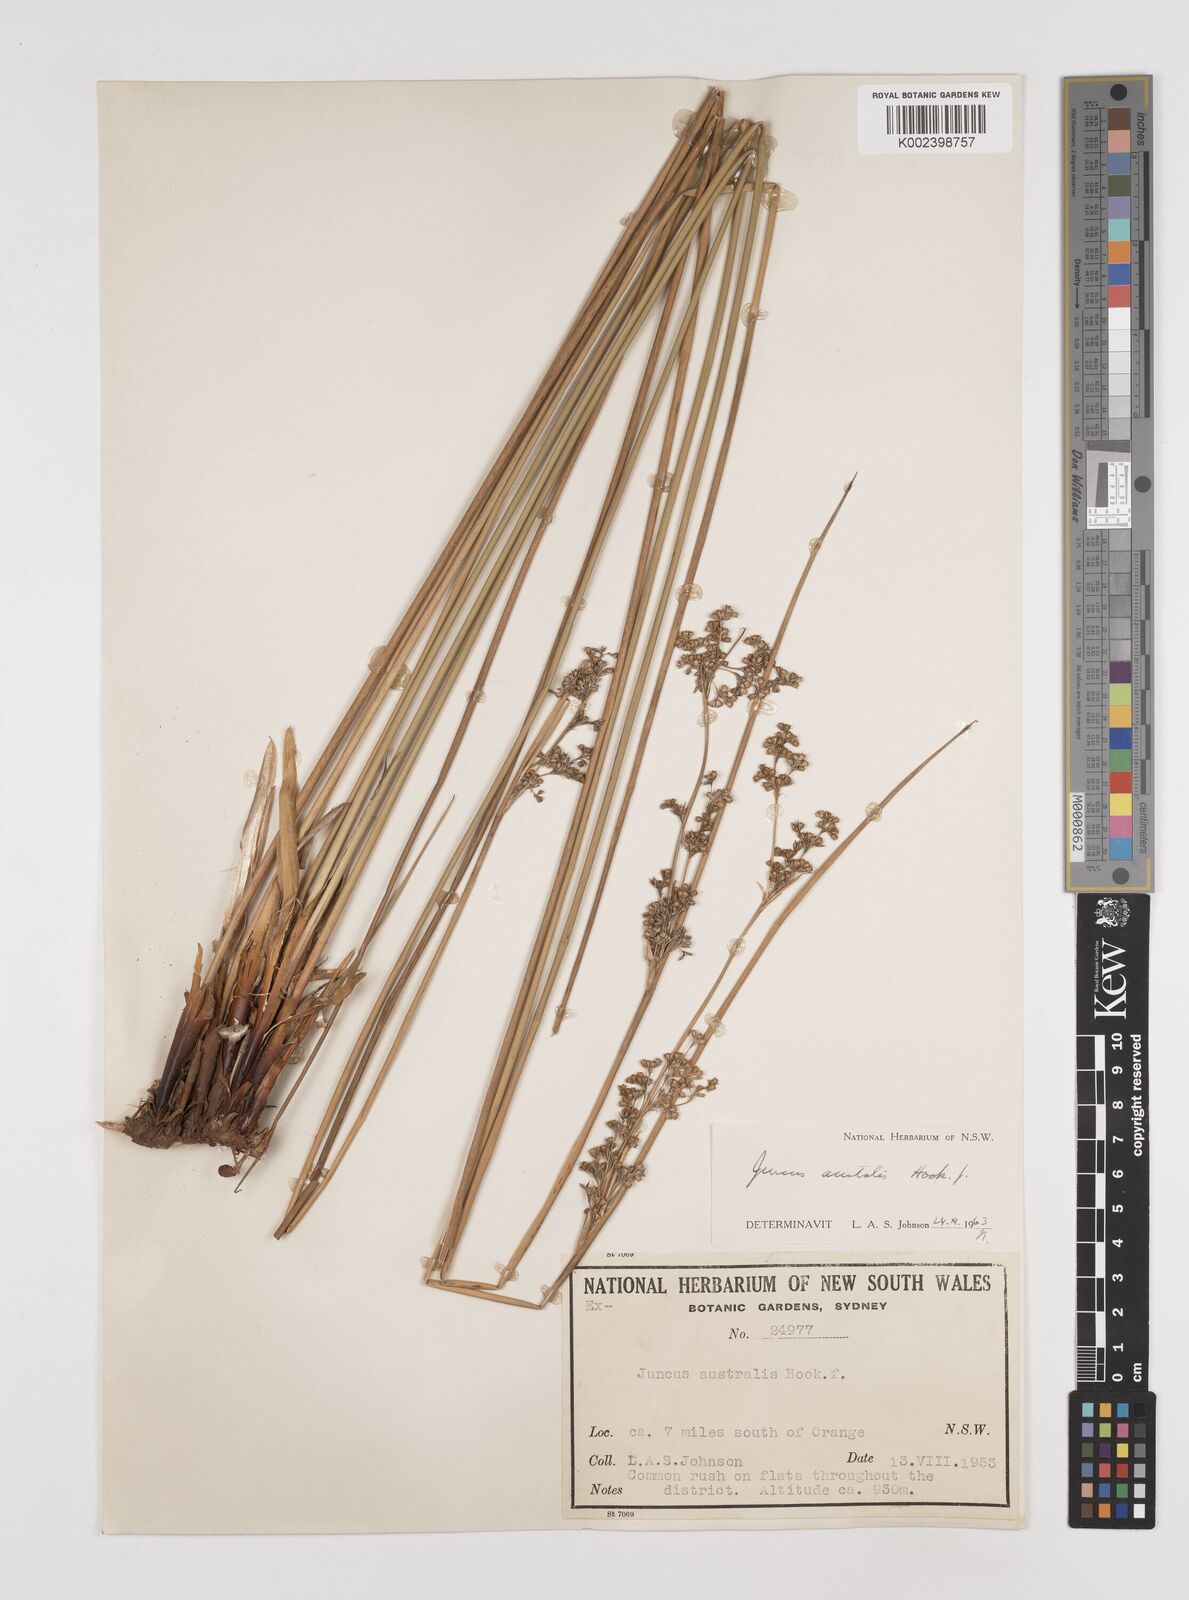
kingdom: Plantae
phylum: Tracheophyta
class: Liliopsida
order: Poales
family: Juncaceae
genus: Juncus
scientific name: Juncus australis
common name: Austral rush
